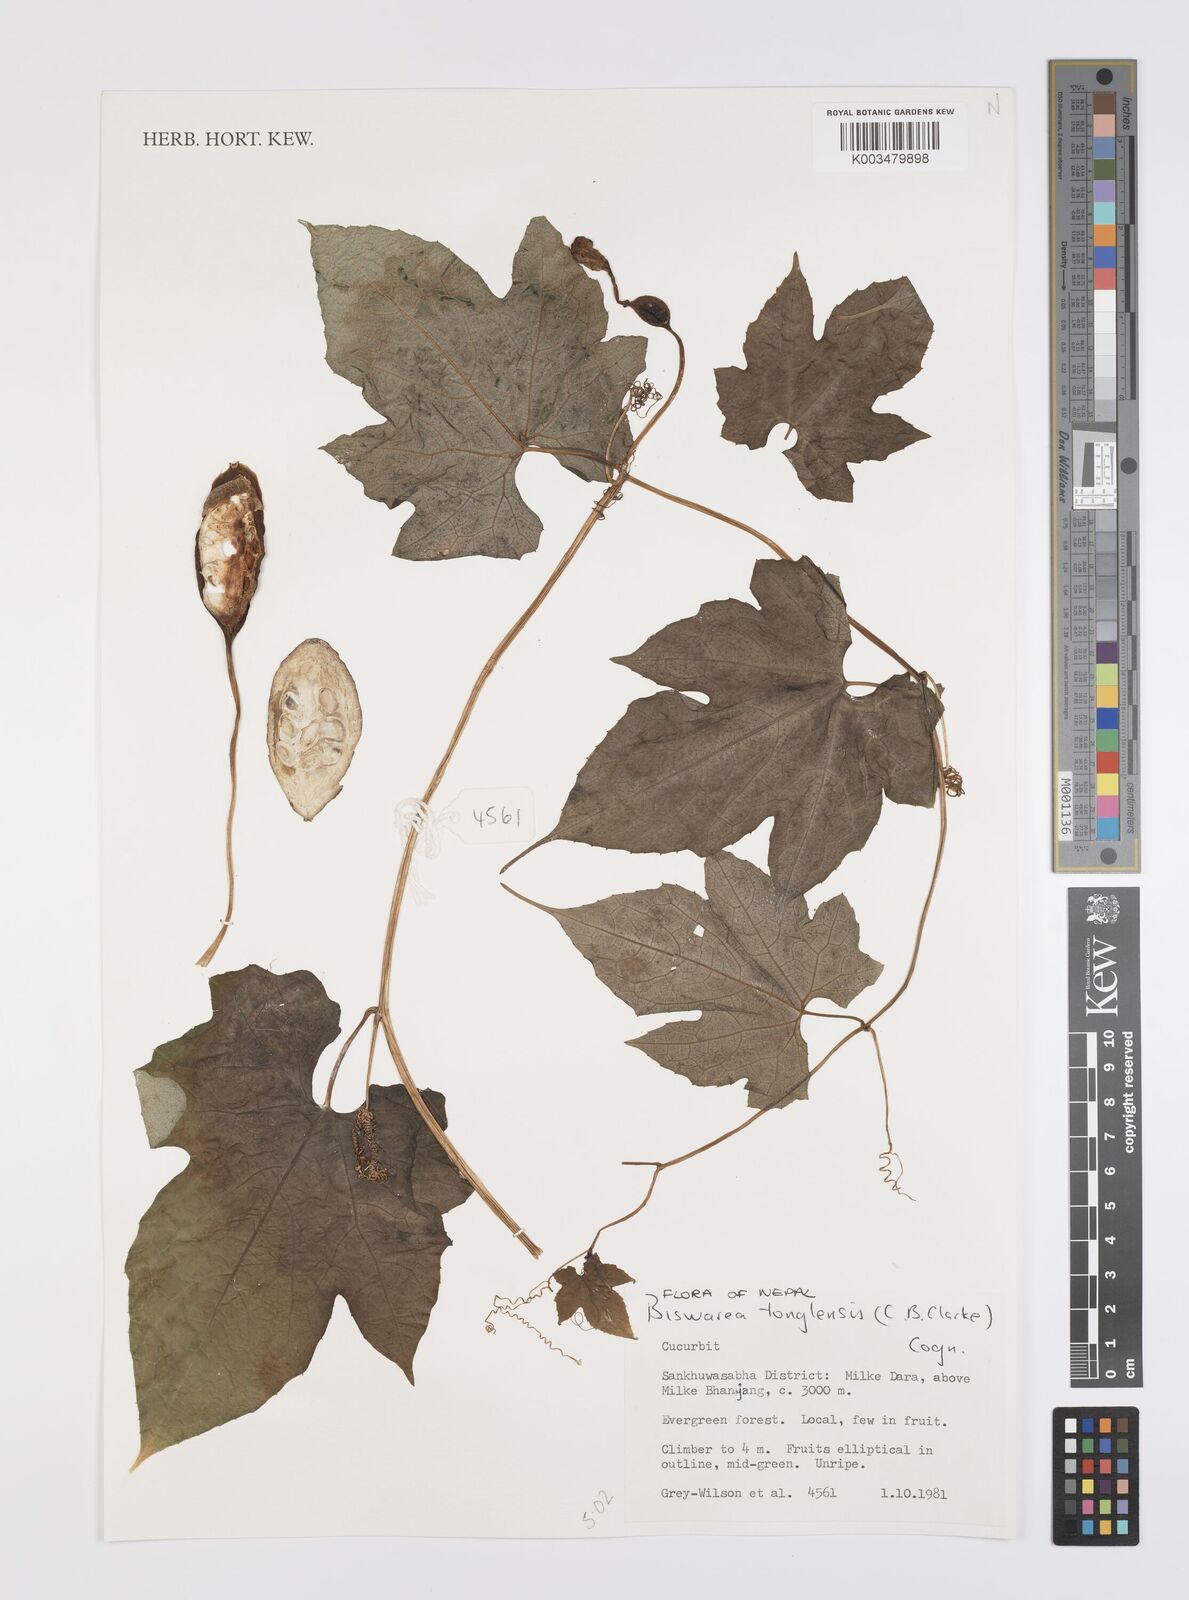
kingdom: Plantae
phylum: Tracheophyta
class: Magnoliopsida
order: Cucurbitales
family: Cucurbitaceae
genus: Benincasa
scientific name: Benincasa
